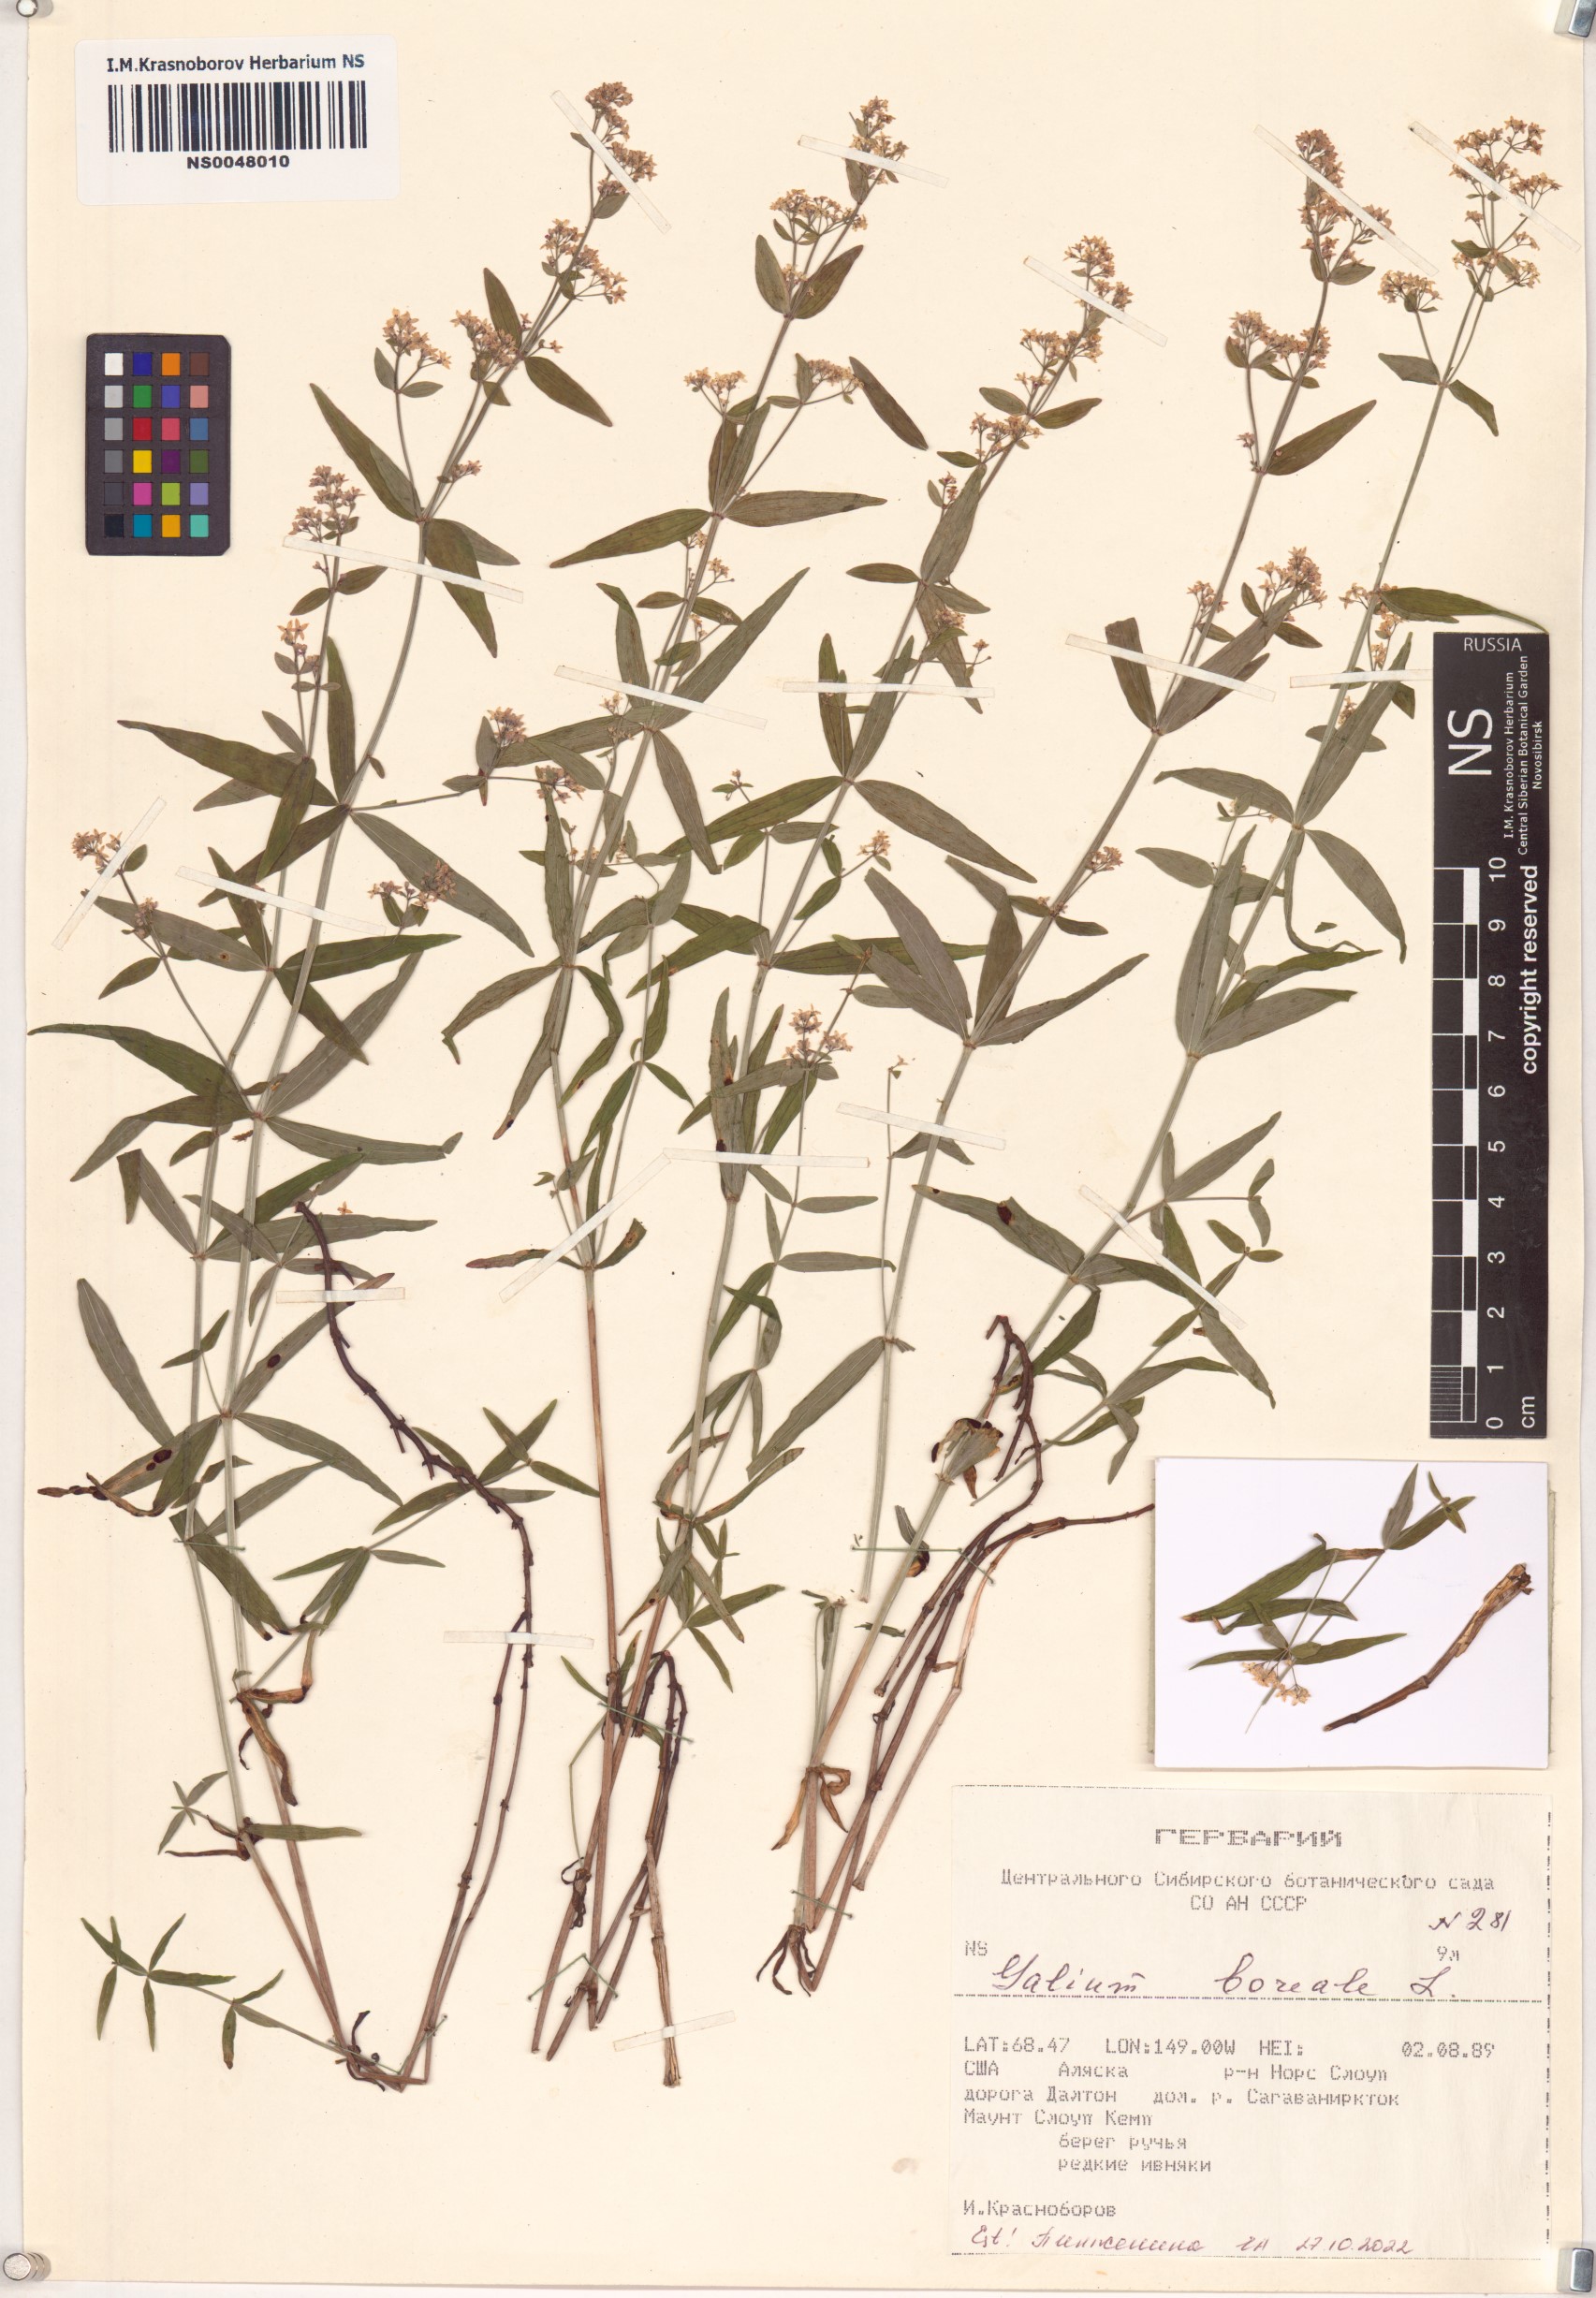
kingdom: Plantae
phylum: Tracheophyta
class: Magnoliopsida
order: Gentianales
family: Rubiaceae
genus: Galium
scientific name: Galium boreale
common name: Northern bedstraw
